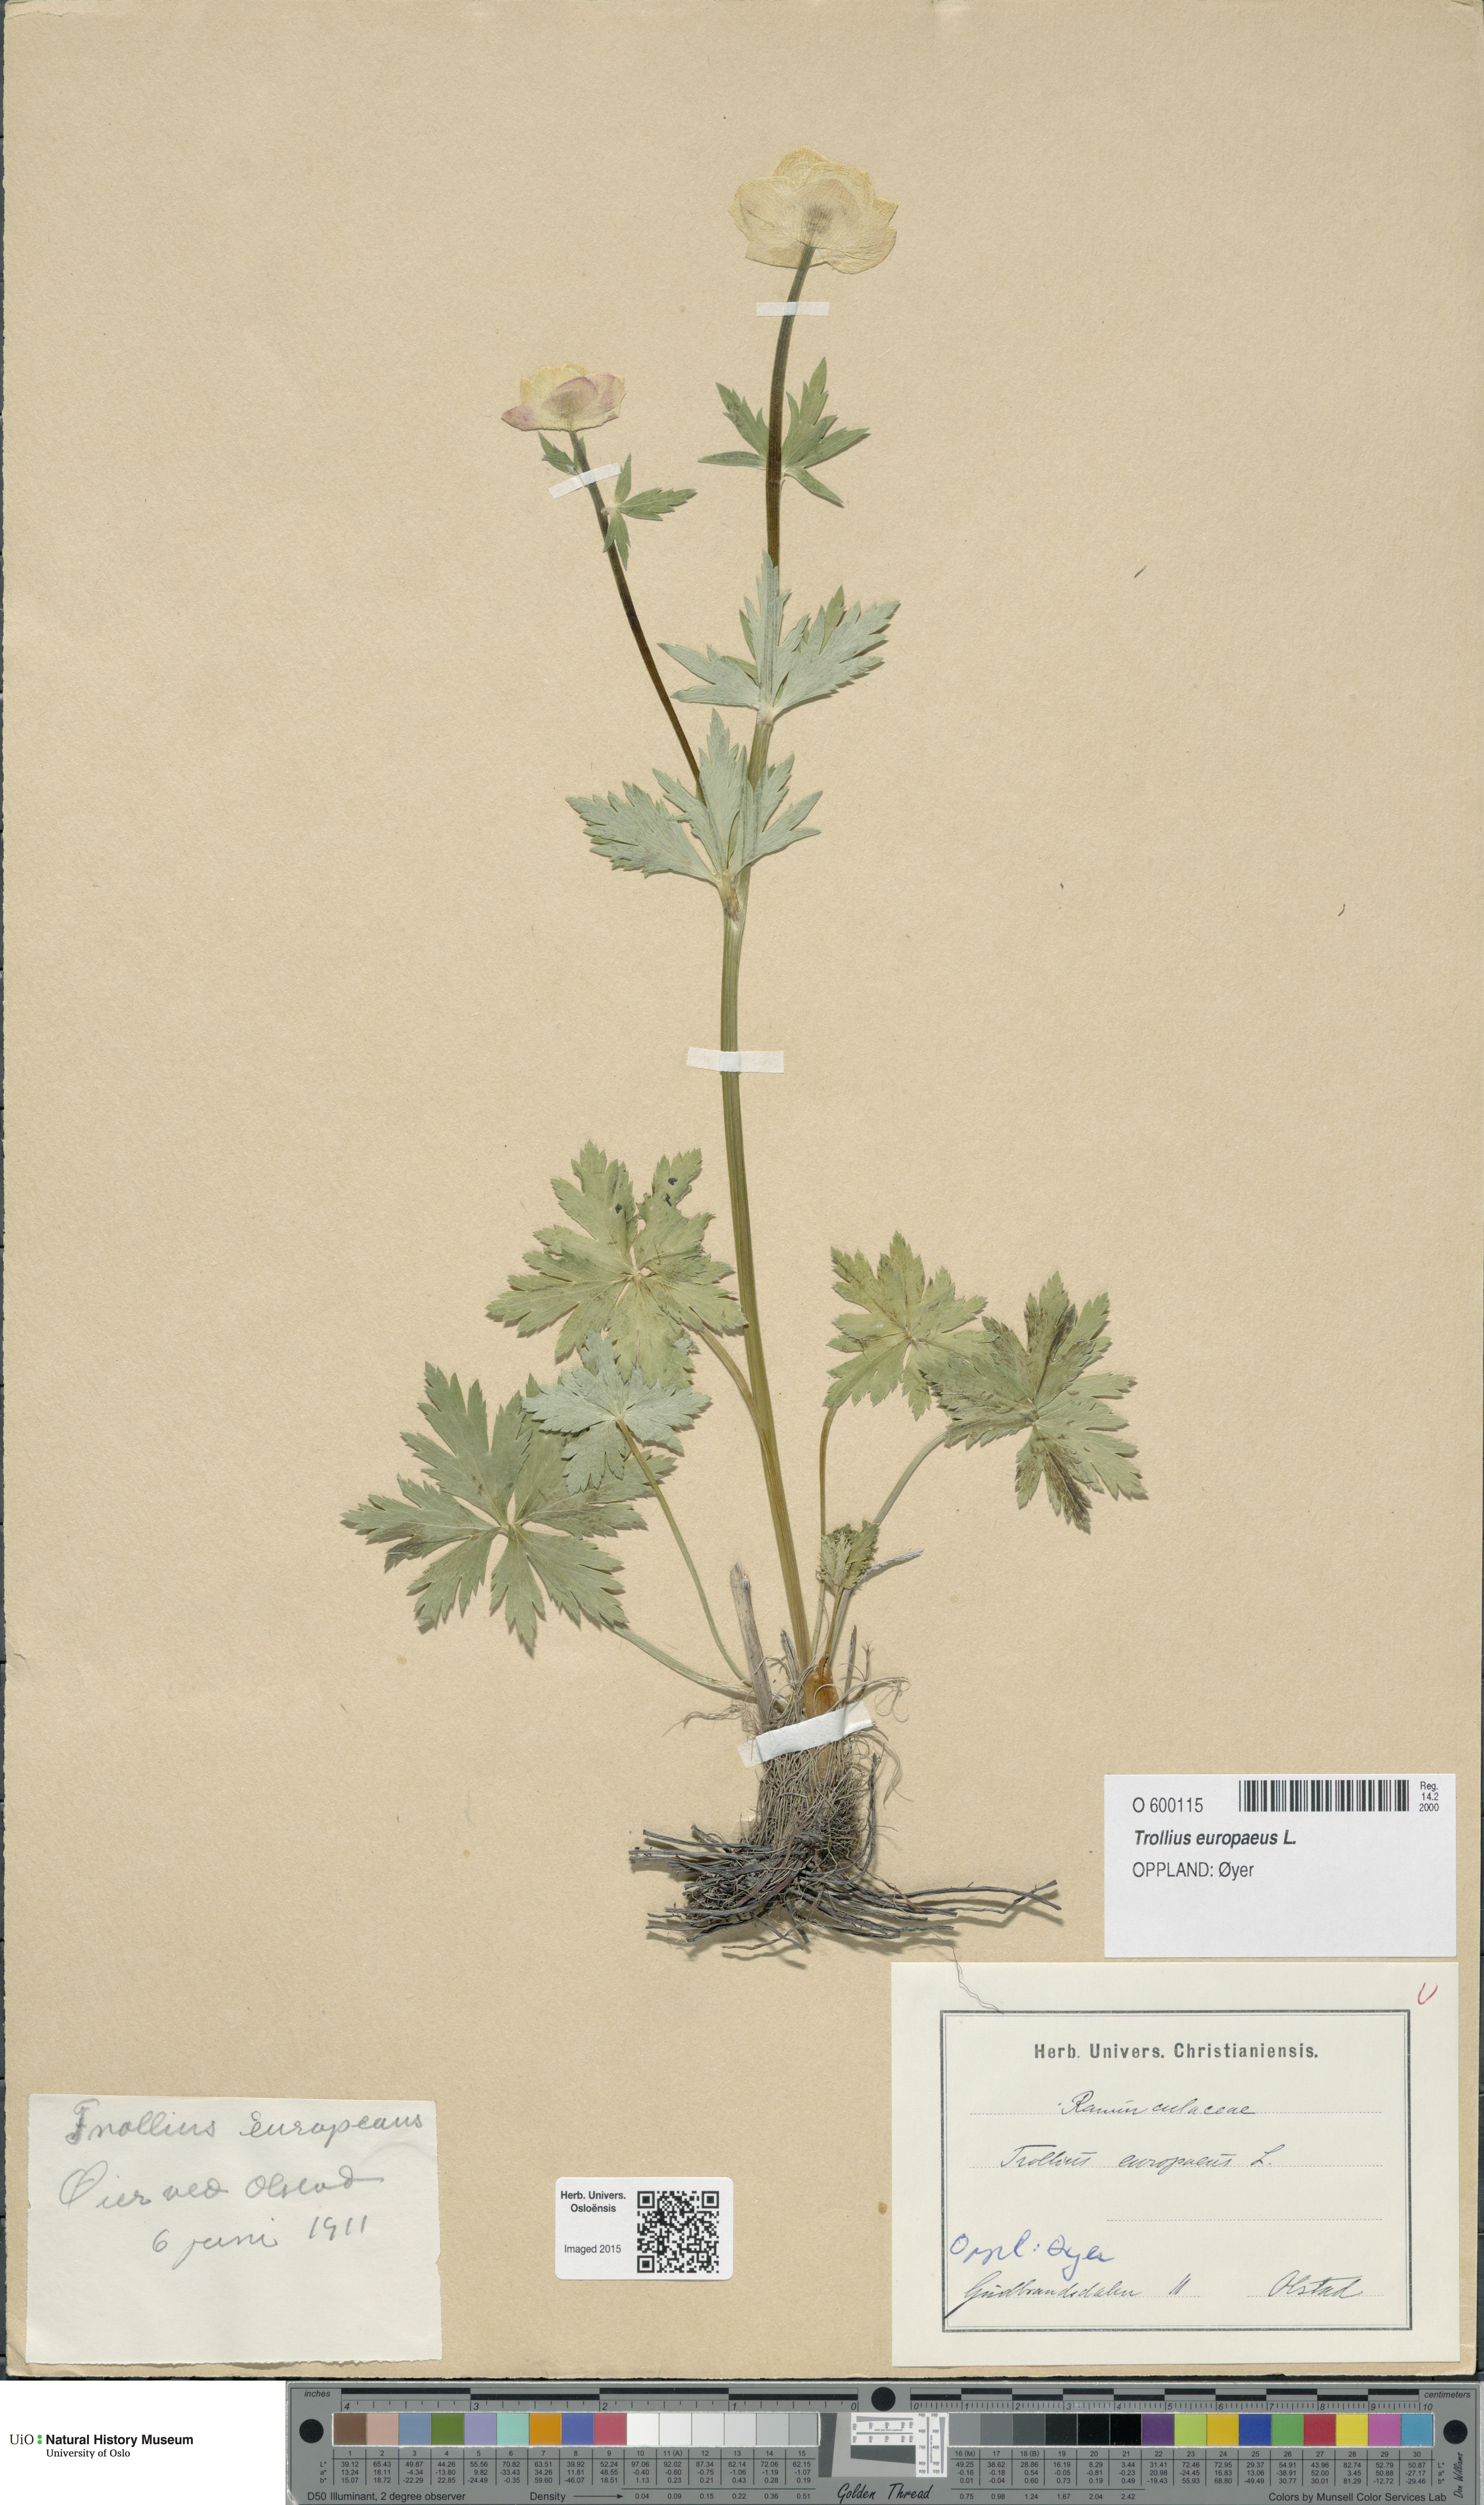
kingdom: Plantae
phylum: Tracheophyta
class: Magnoliopsida
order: Ranunculales
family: Ranunculaceae
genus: Trollius
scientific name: Trollius europaeus
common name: European globeflower
